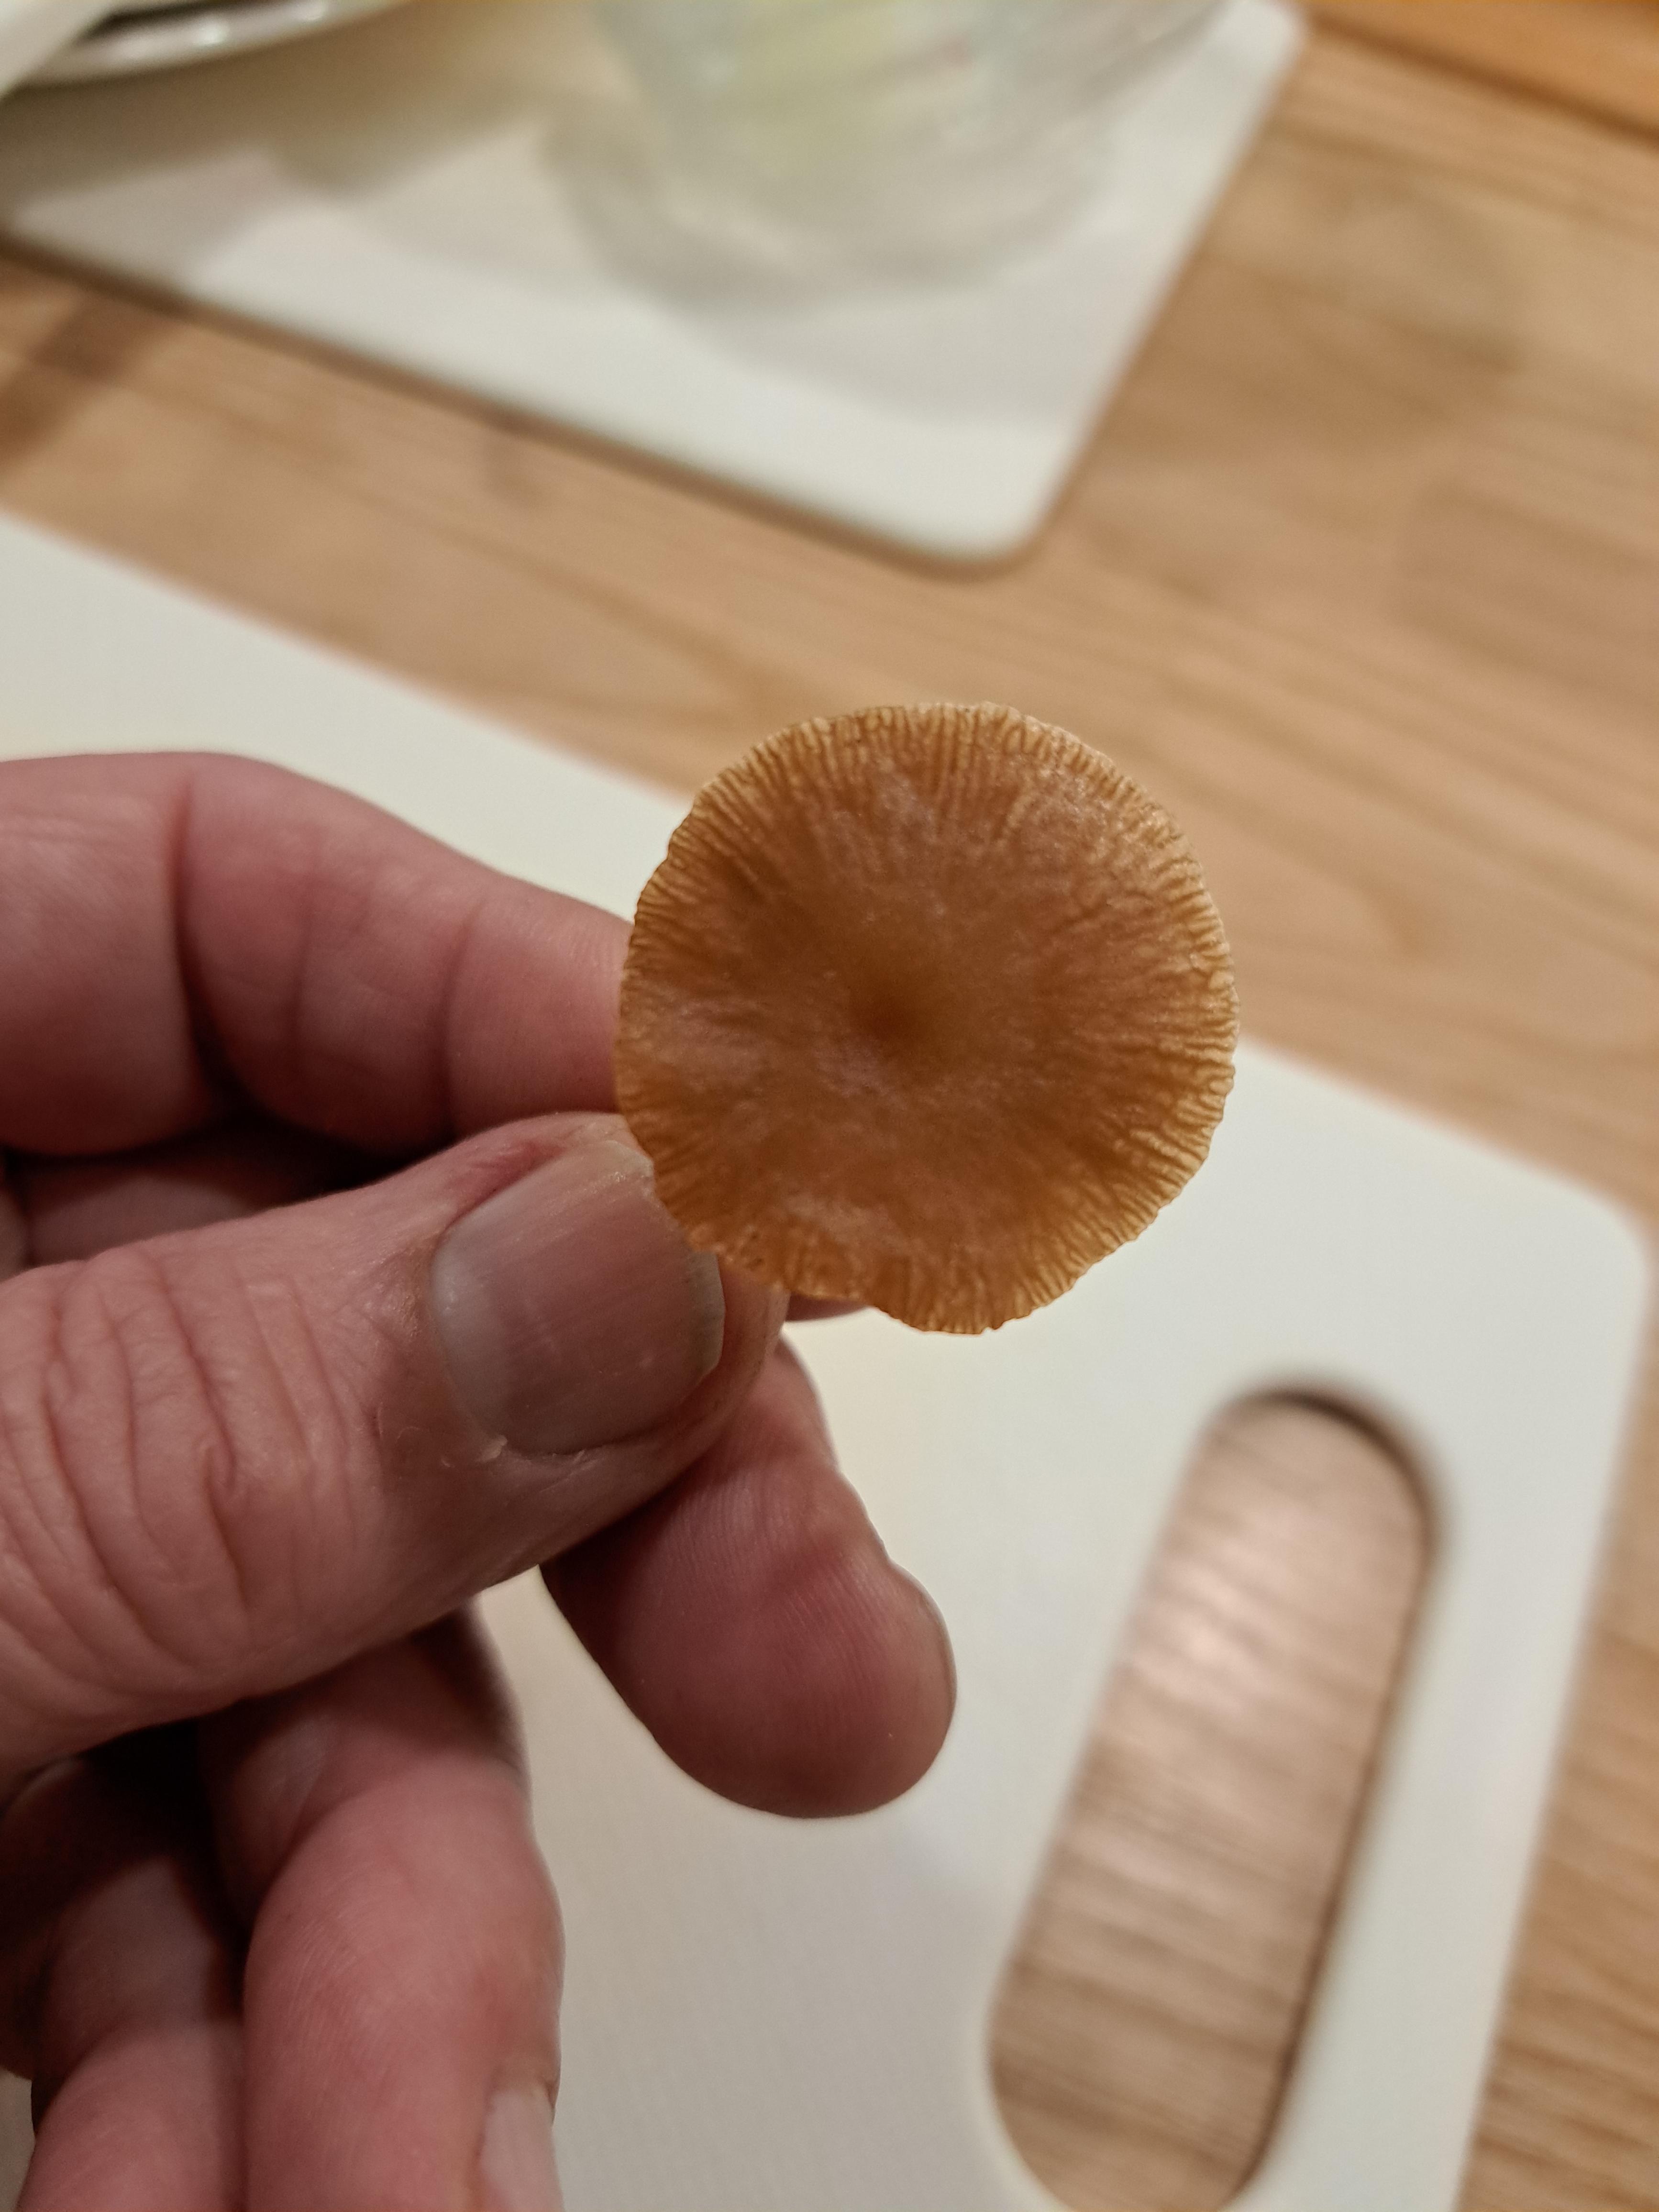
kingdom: Fungi
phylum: Basidiomycota
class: Agaricomycetes
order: Agaricales
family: Tubariaceae
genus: Tubaria
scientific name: Tubaria furfuracea
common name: kliddet fnughat
